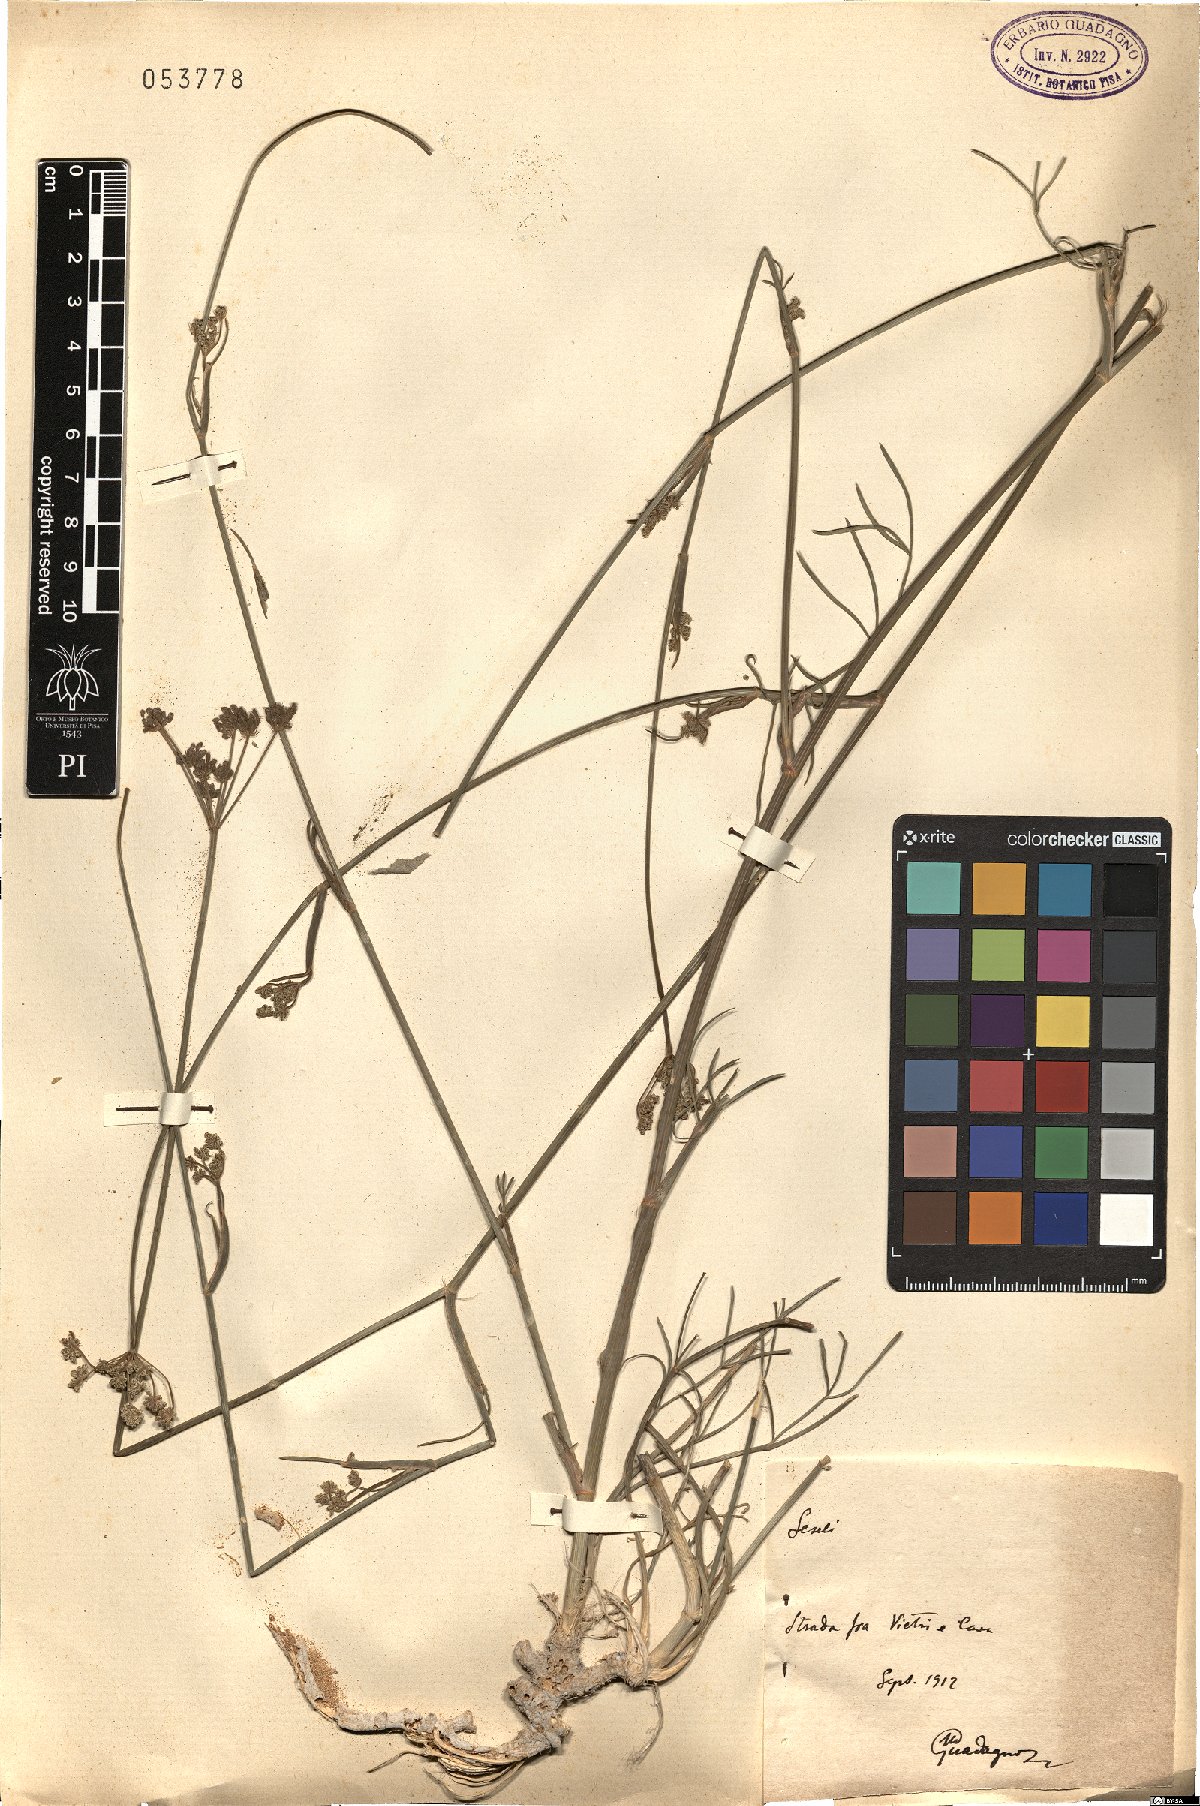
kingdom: Plantae
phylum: Tracheophyta
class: Magnoliopsida
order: Apiales
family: Apiaceae
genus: Seseli
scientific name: Seseli
